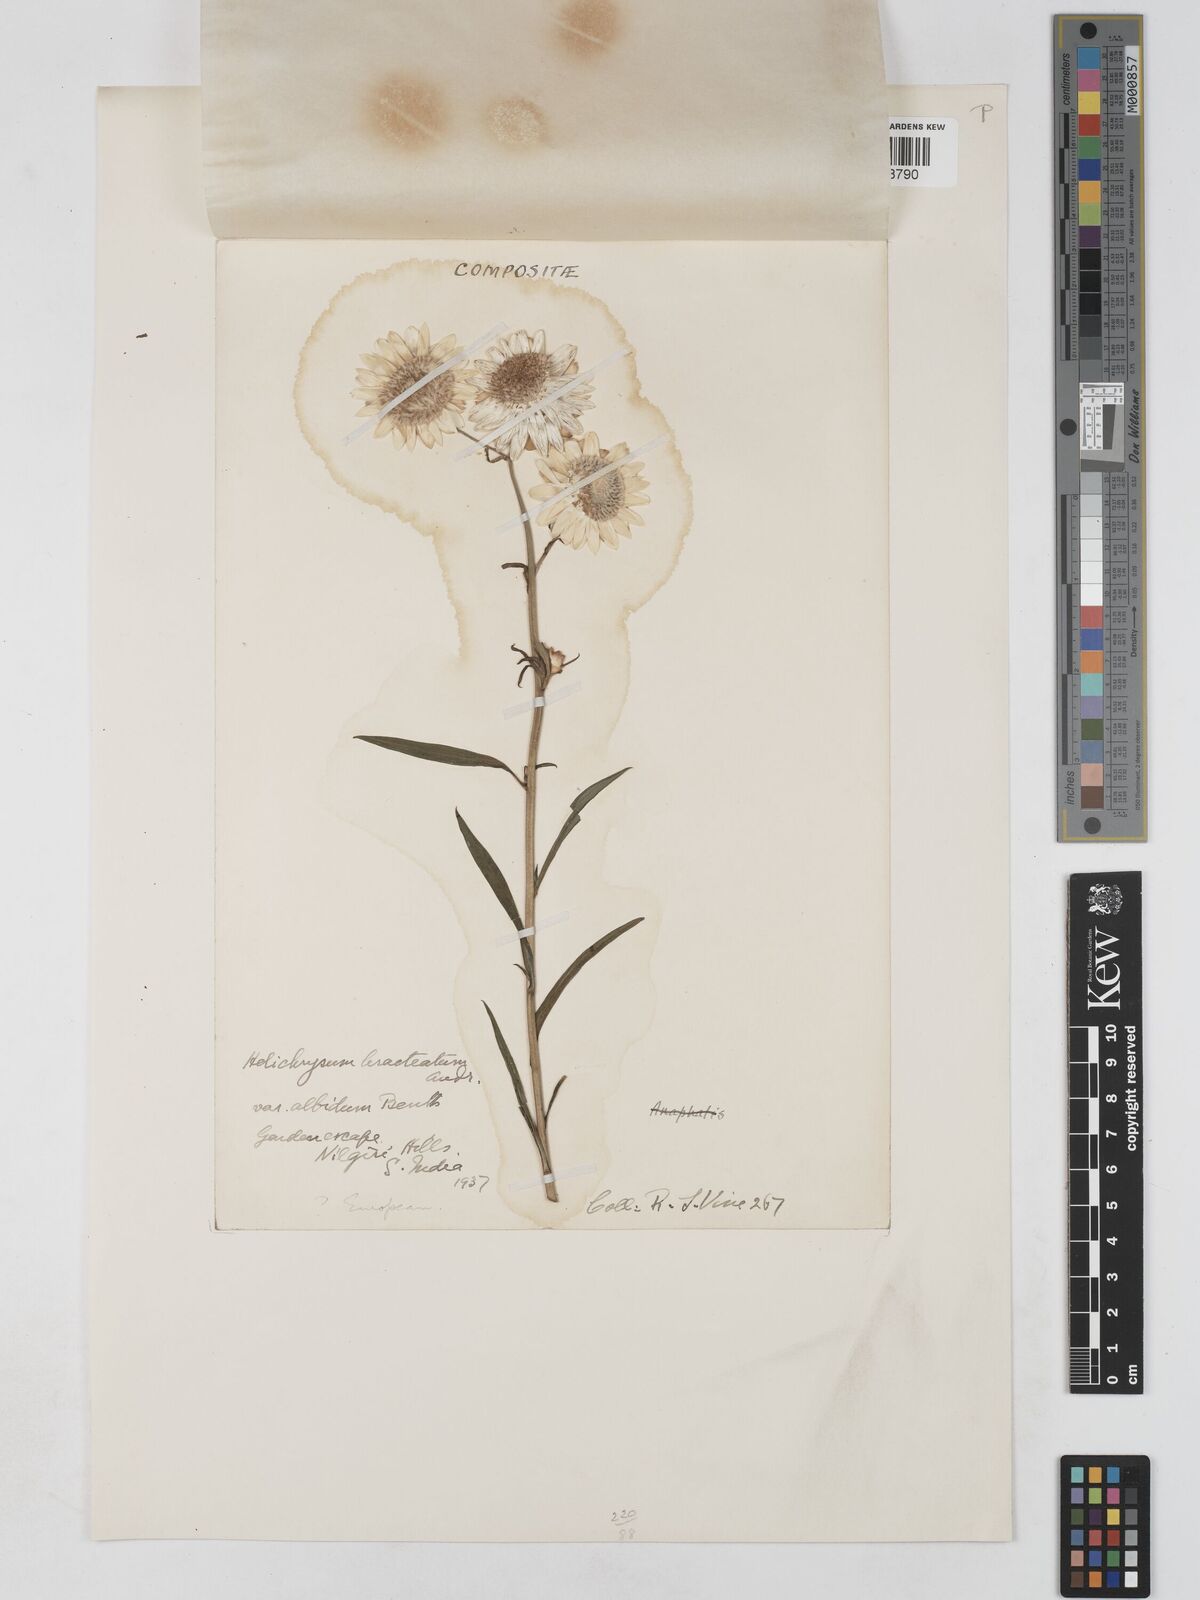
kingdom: Plantae
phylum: Tracheophyta
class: Magnoliopsida
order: Asterales
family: Asteraceae
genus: Xerochrysum
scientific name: Xerochrysum bracteatum
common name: Bracted strawflower
